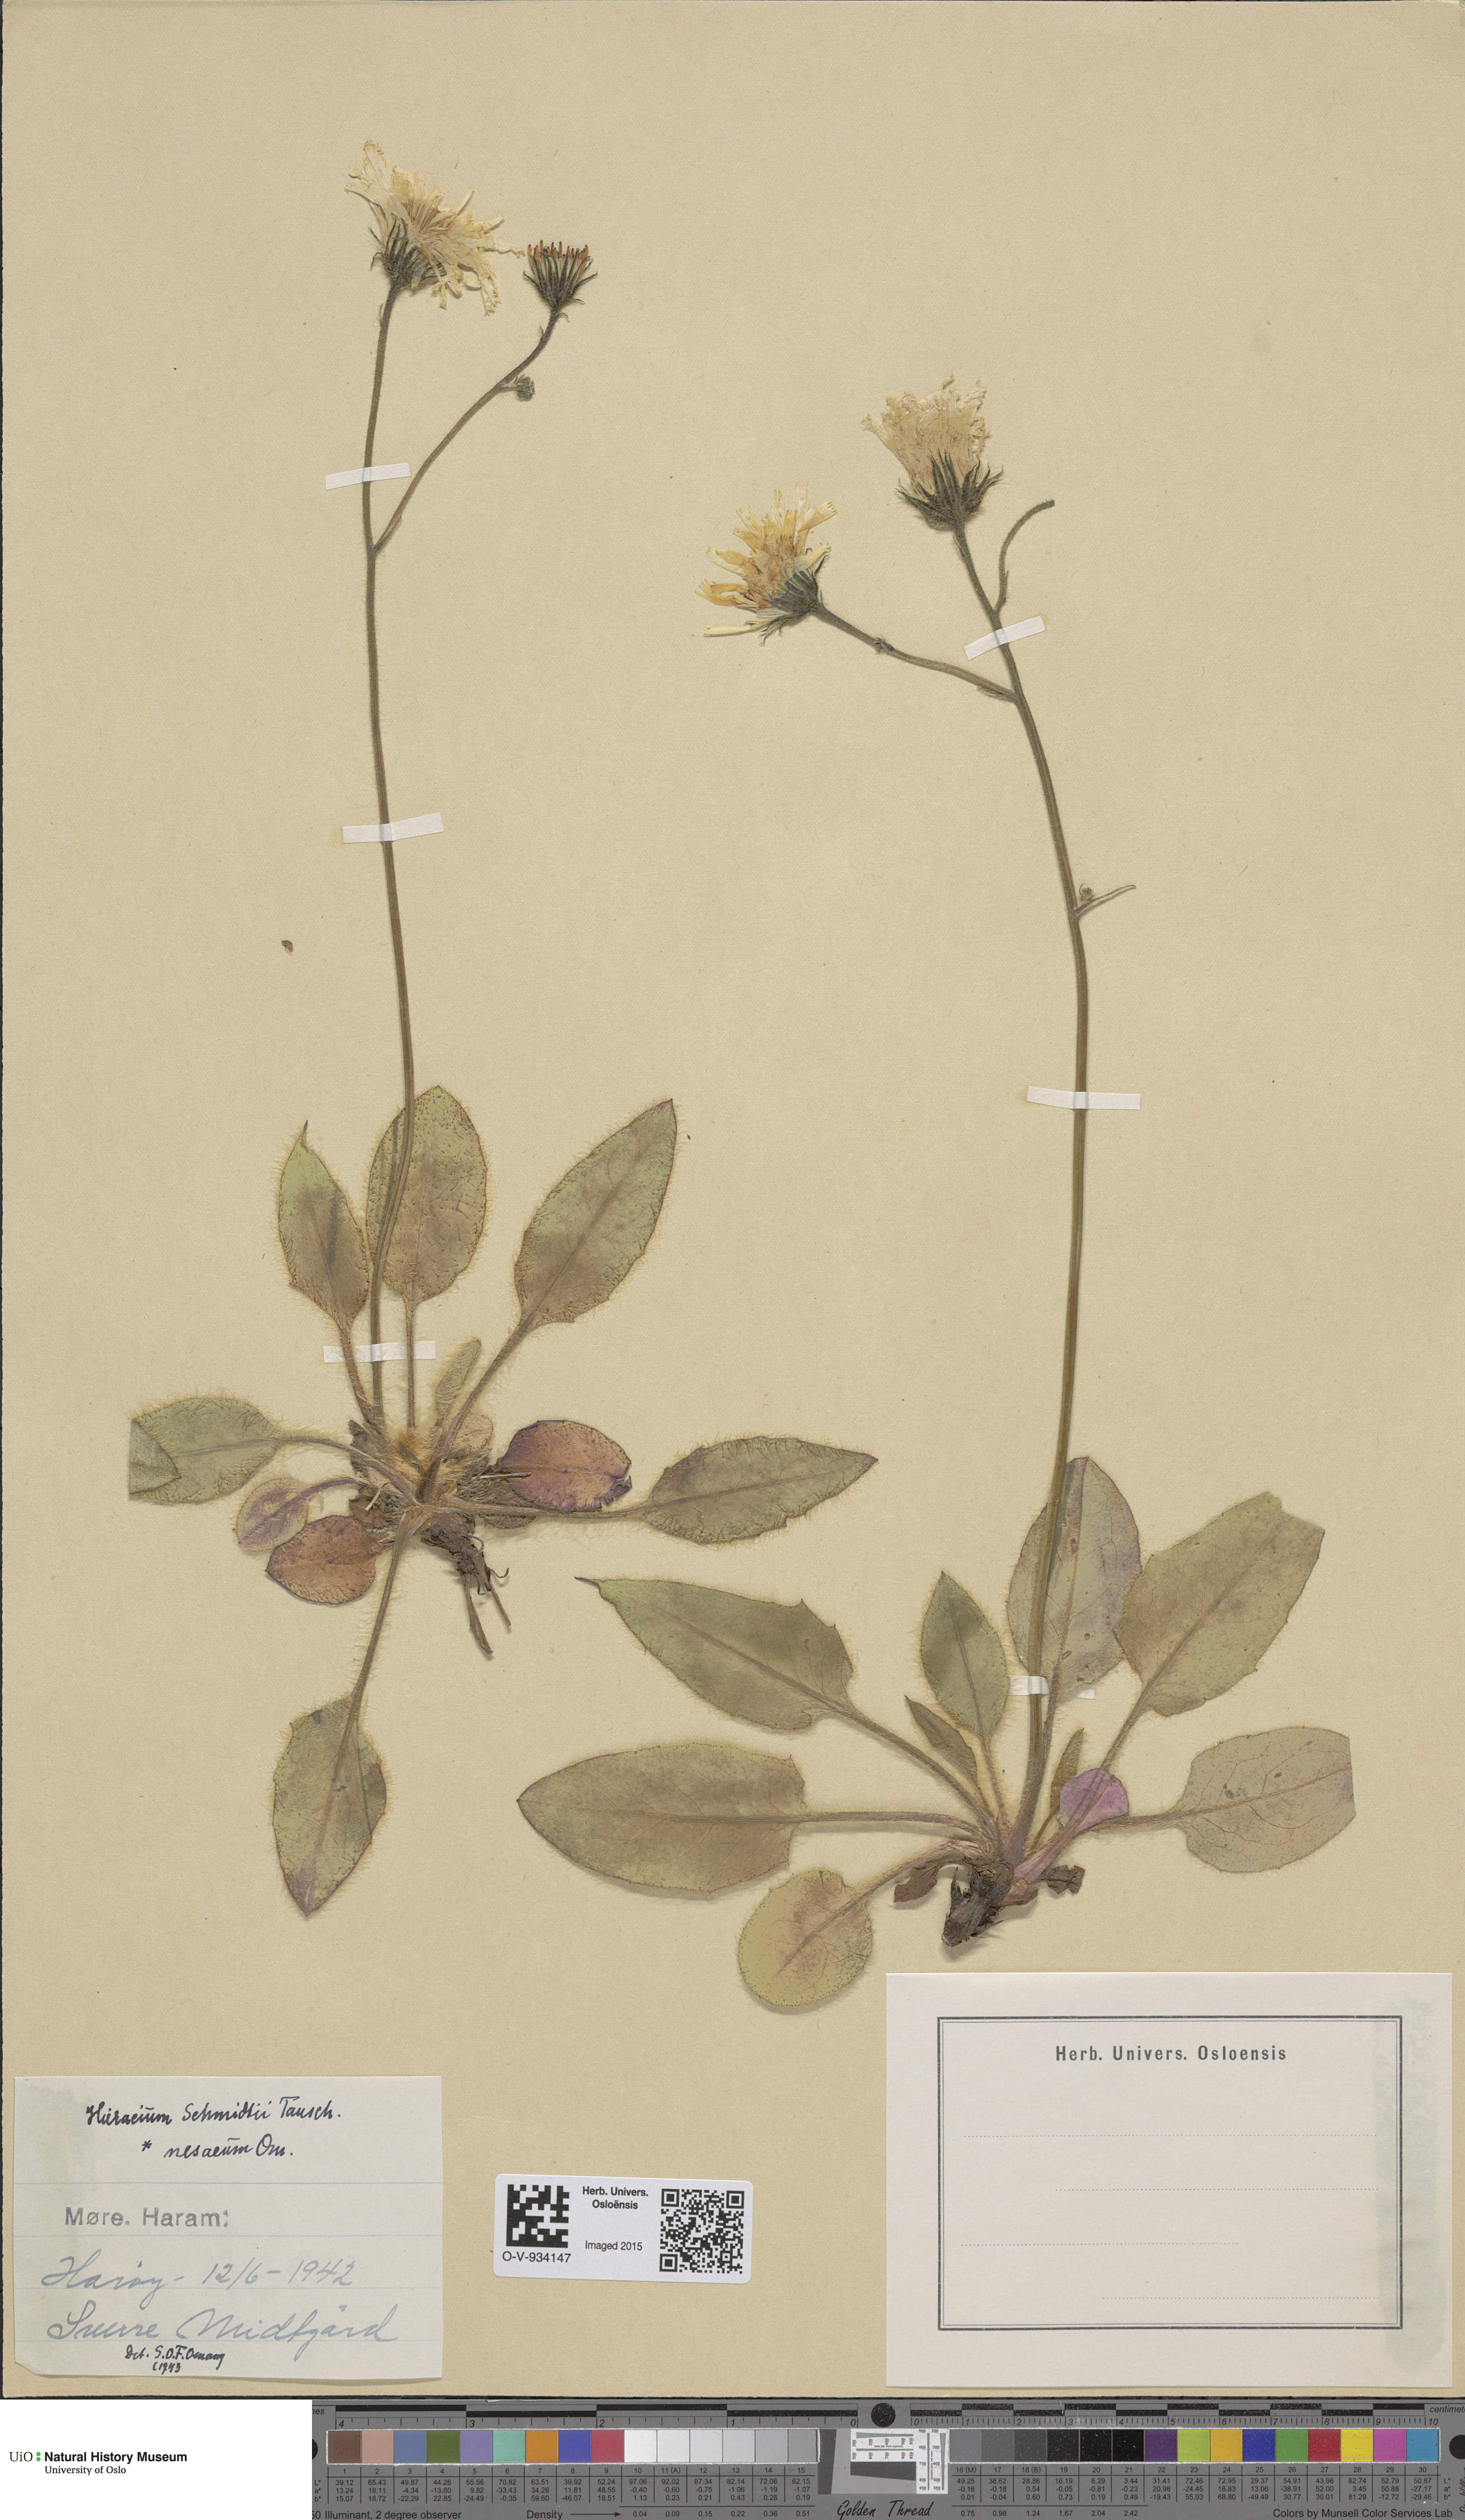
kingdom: Plantae
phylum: Tracheophyta
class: Magnoliopsida
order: Asterales
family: Asteraceae
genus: Hieracium
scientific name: Hieracium schmidtii
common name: Schmidt's hawkweed
